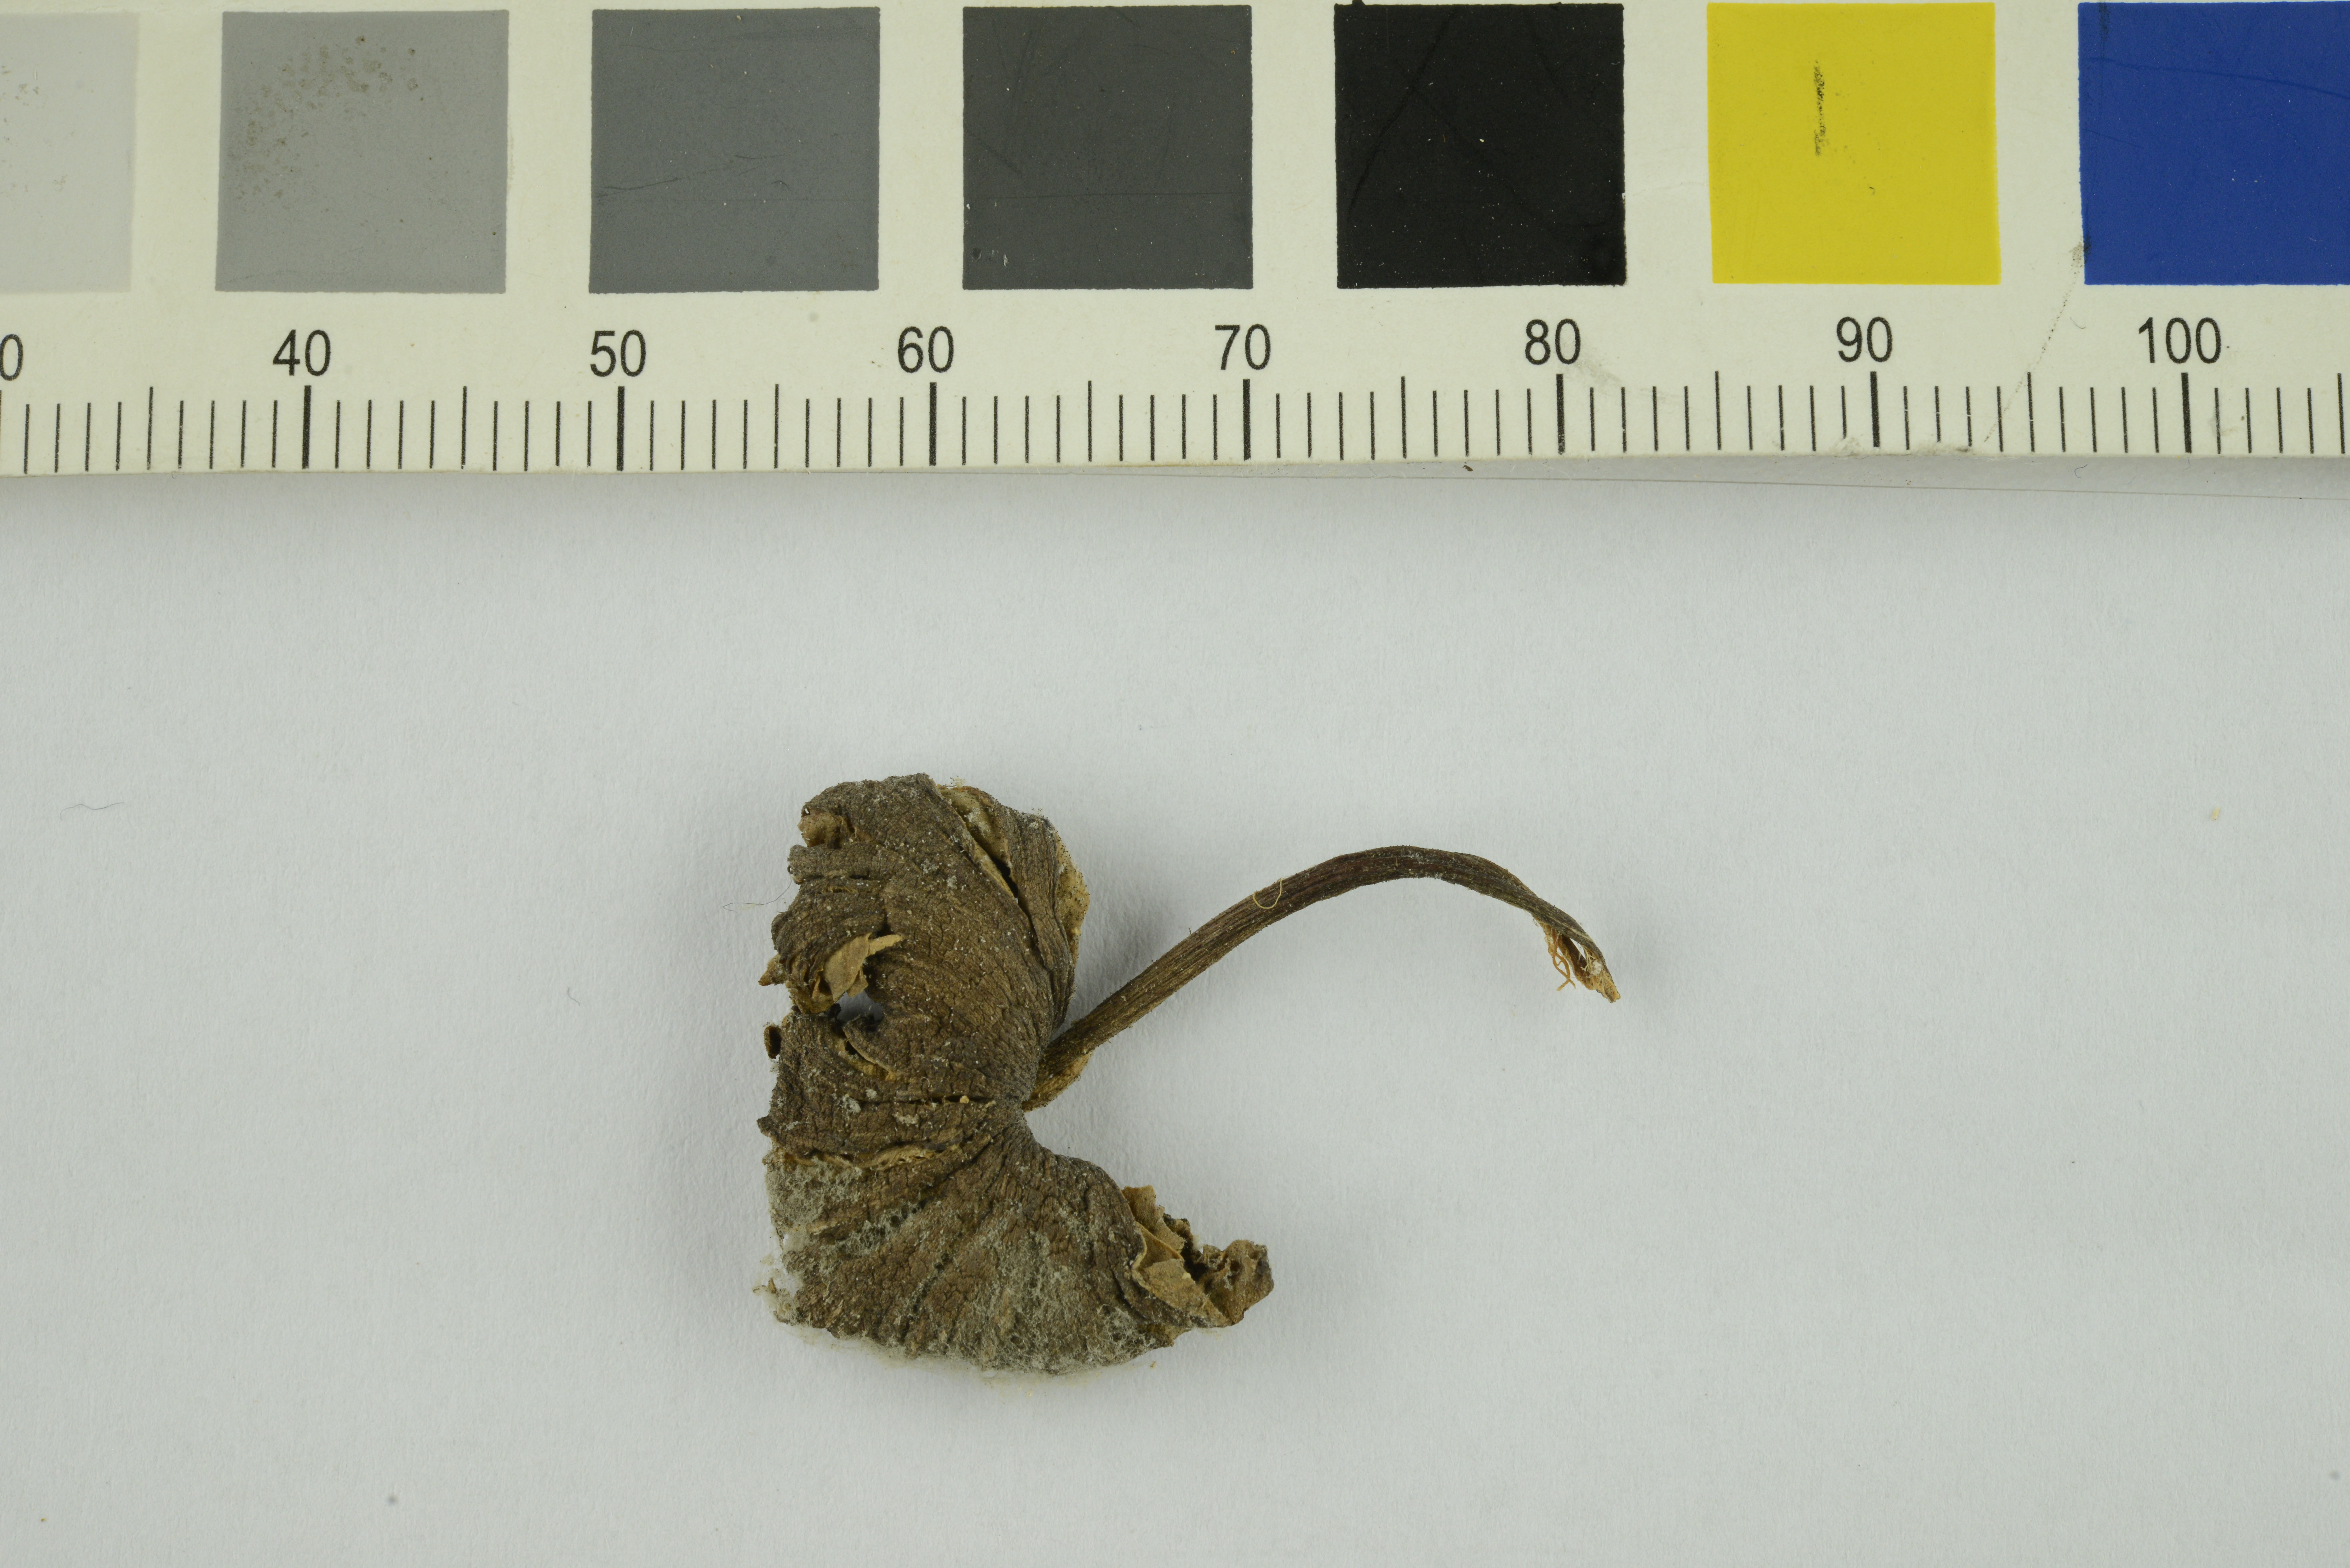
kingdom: Fungi
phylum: Basidiomycota
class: Agaricomycetes
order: Agaricales
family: Entolomataceae
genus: Entoloma
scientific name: Entoloma glaucobasis
